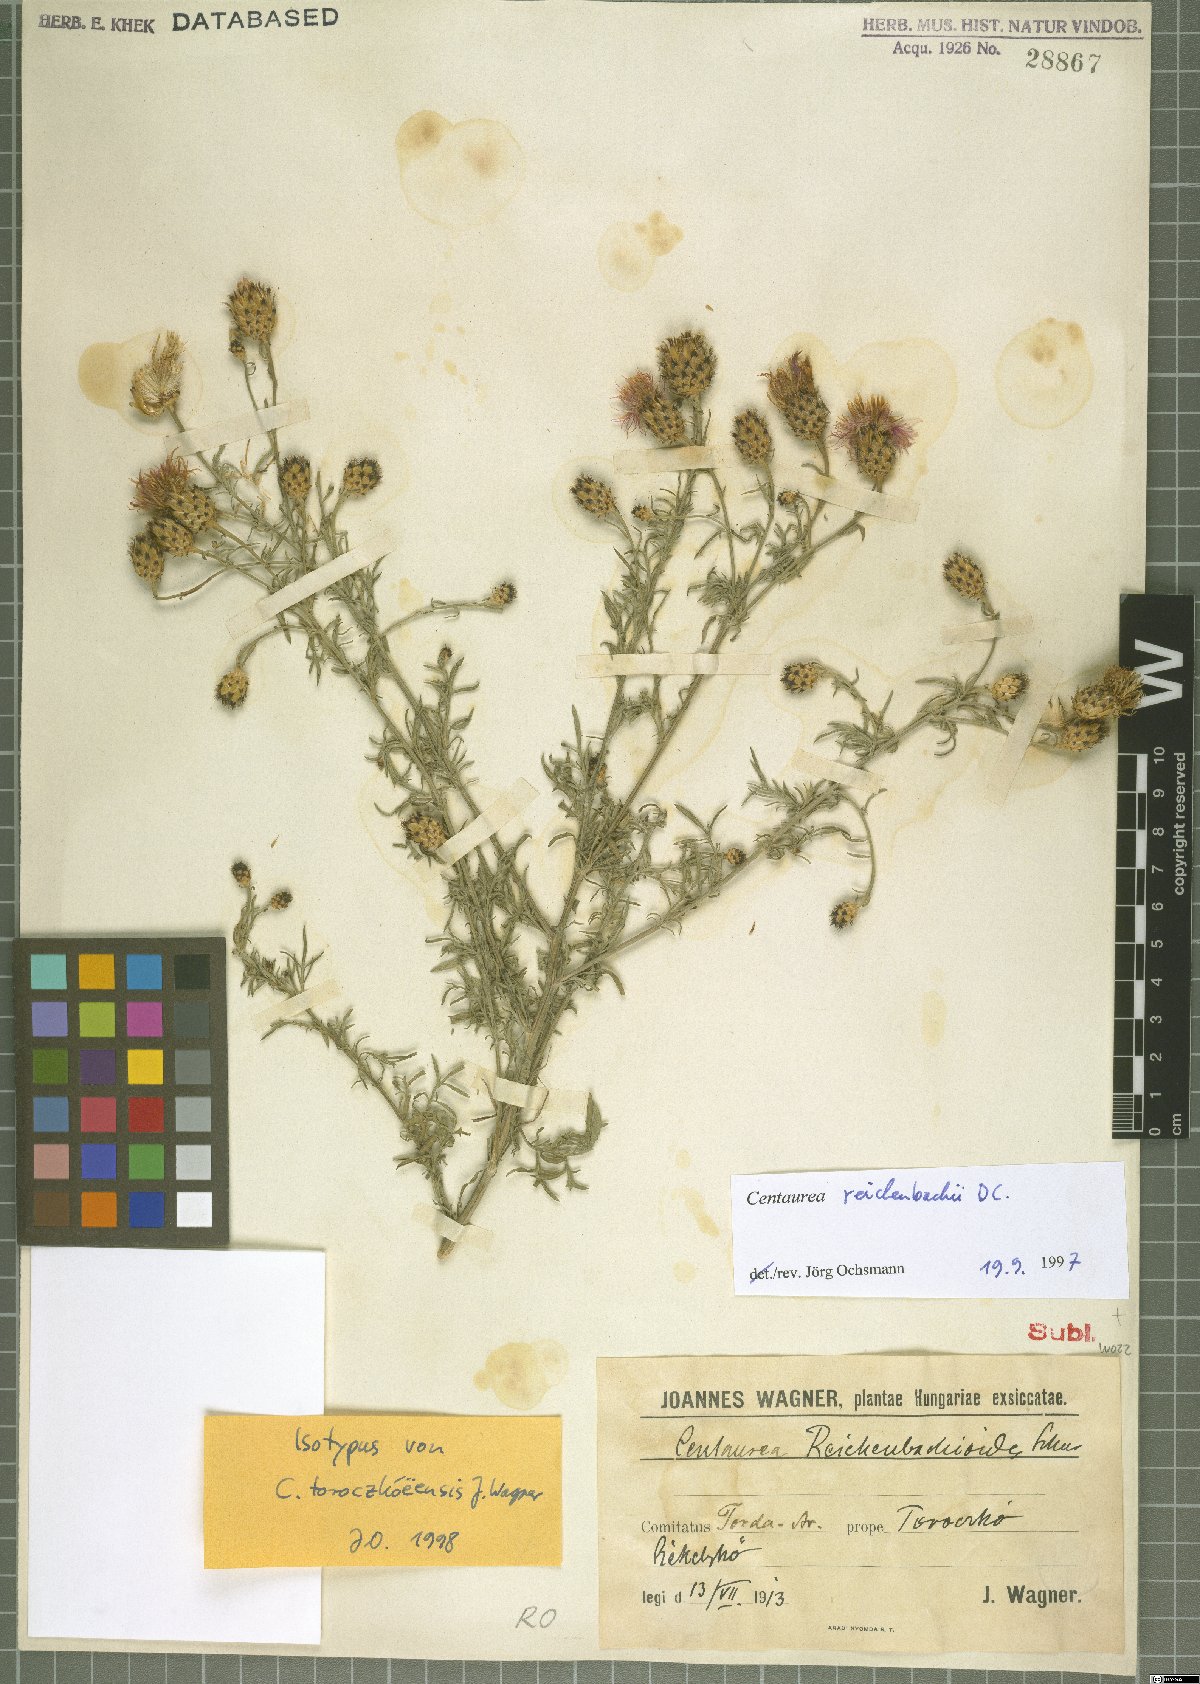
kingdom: Plantae
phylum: Tracheophyta
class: Magnoliopsida
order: Asterales
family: Asteraceae
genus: Centaurea
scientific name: Centaurea reichenbachii
